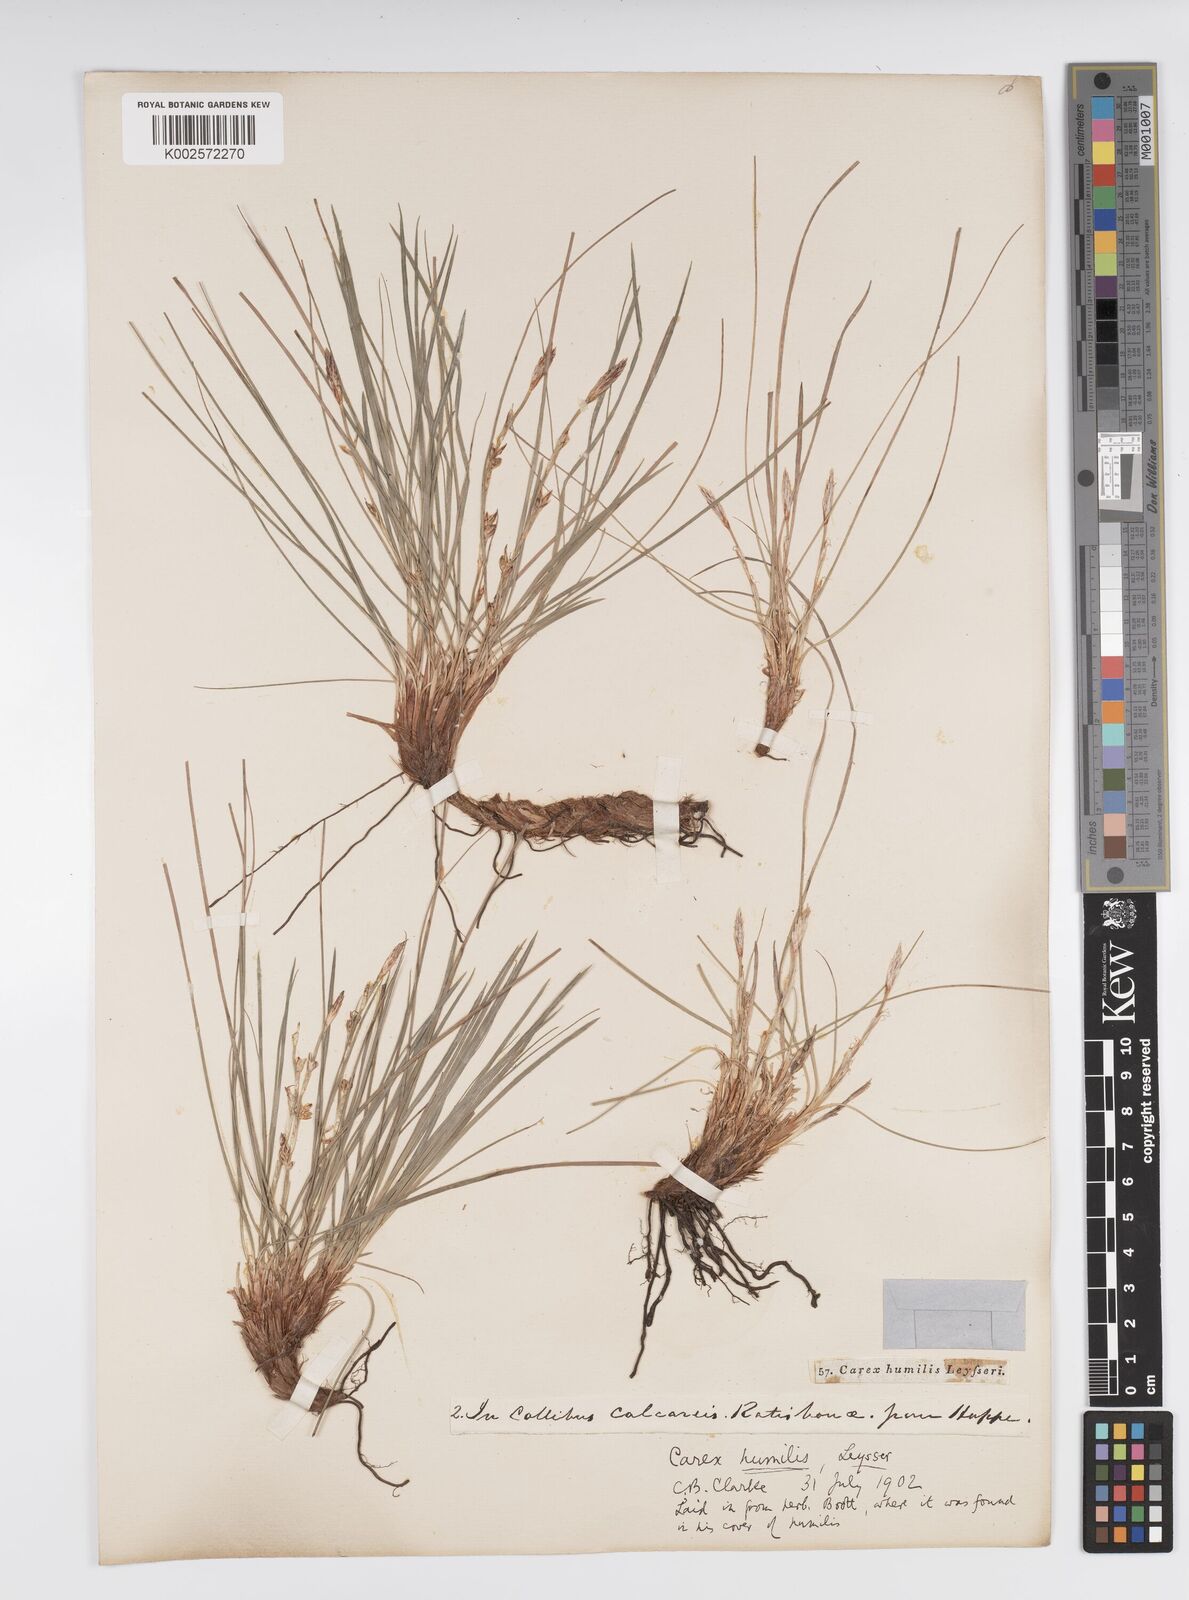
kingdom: Plantae
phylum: Tracheophyta
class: Liliopsida
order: Poales
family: Cyperaceae
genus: Carex
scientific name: Carex humilis
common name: Dwarf sedge
